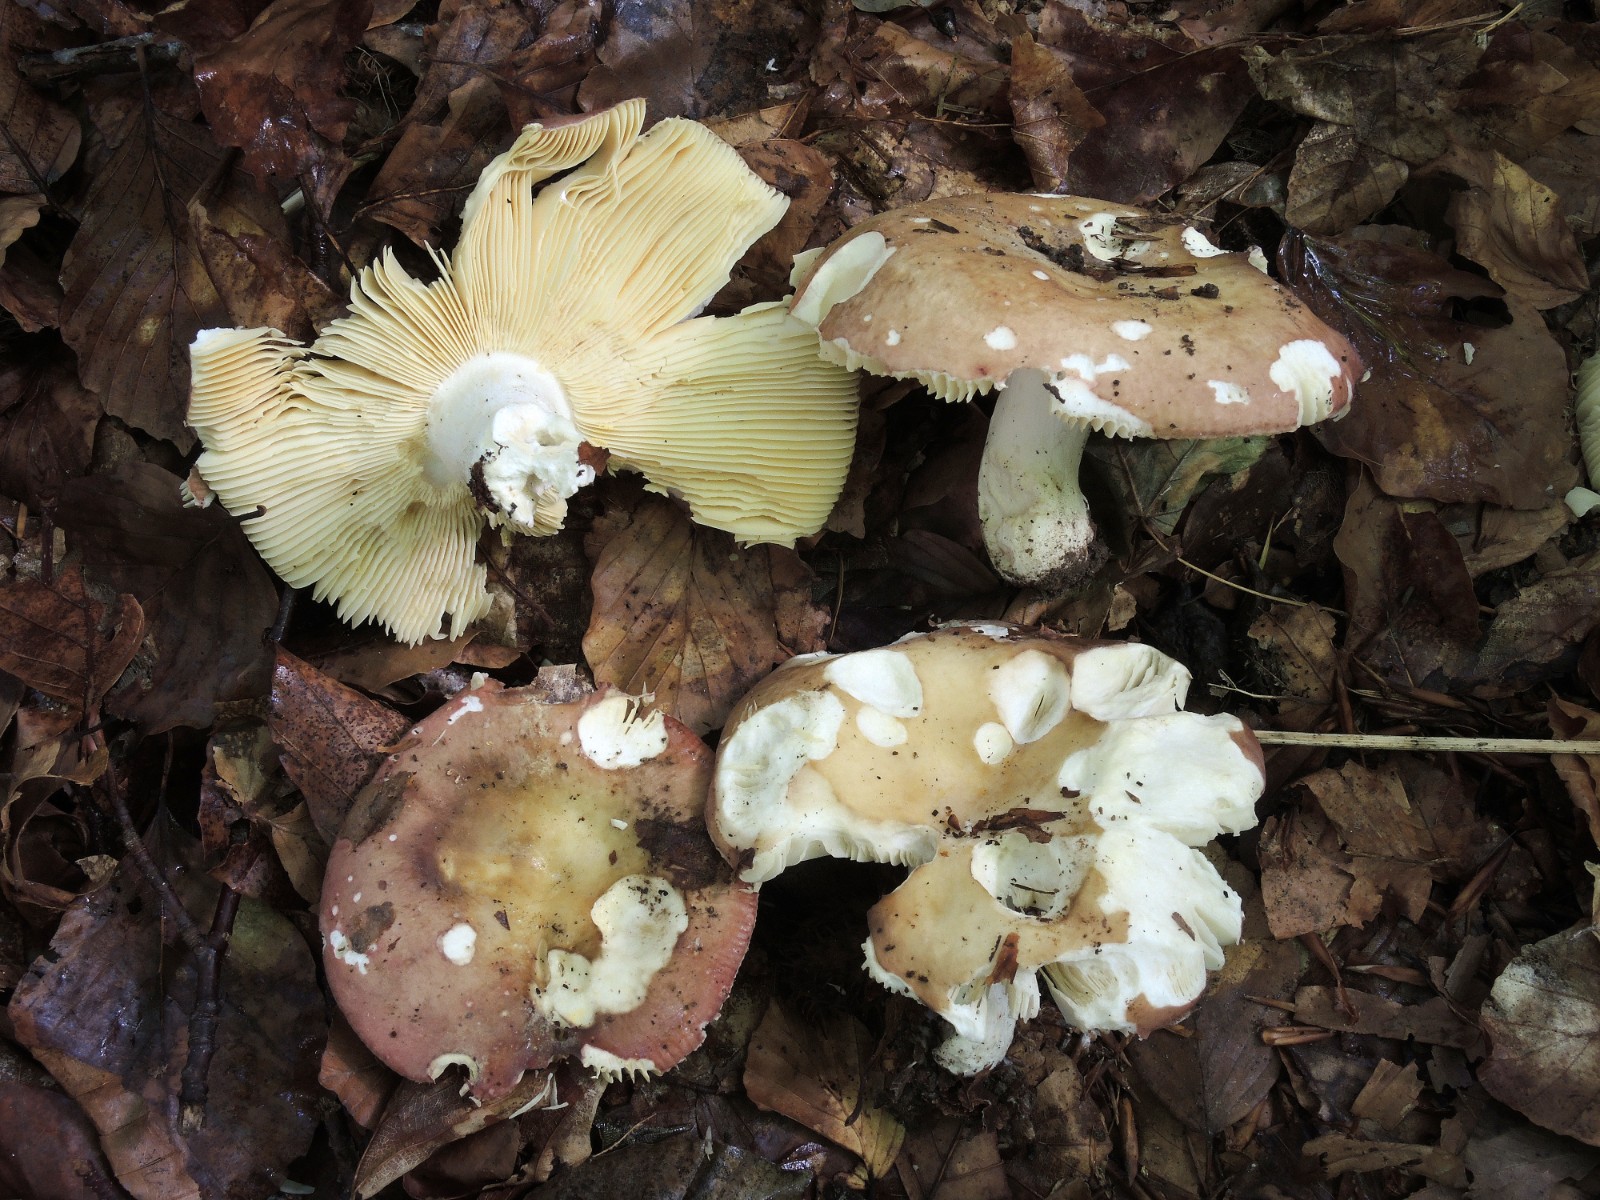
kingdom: Fungi
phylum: Basidiomycota
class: Agaricomycetes
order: Russulales
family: Russulaceae
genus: Russula
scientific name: Russula
